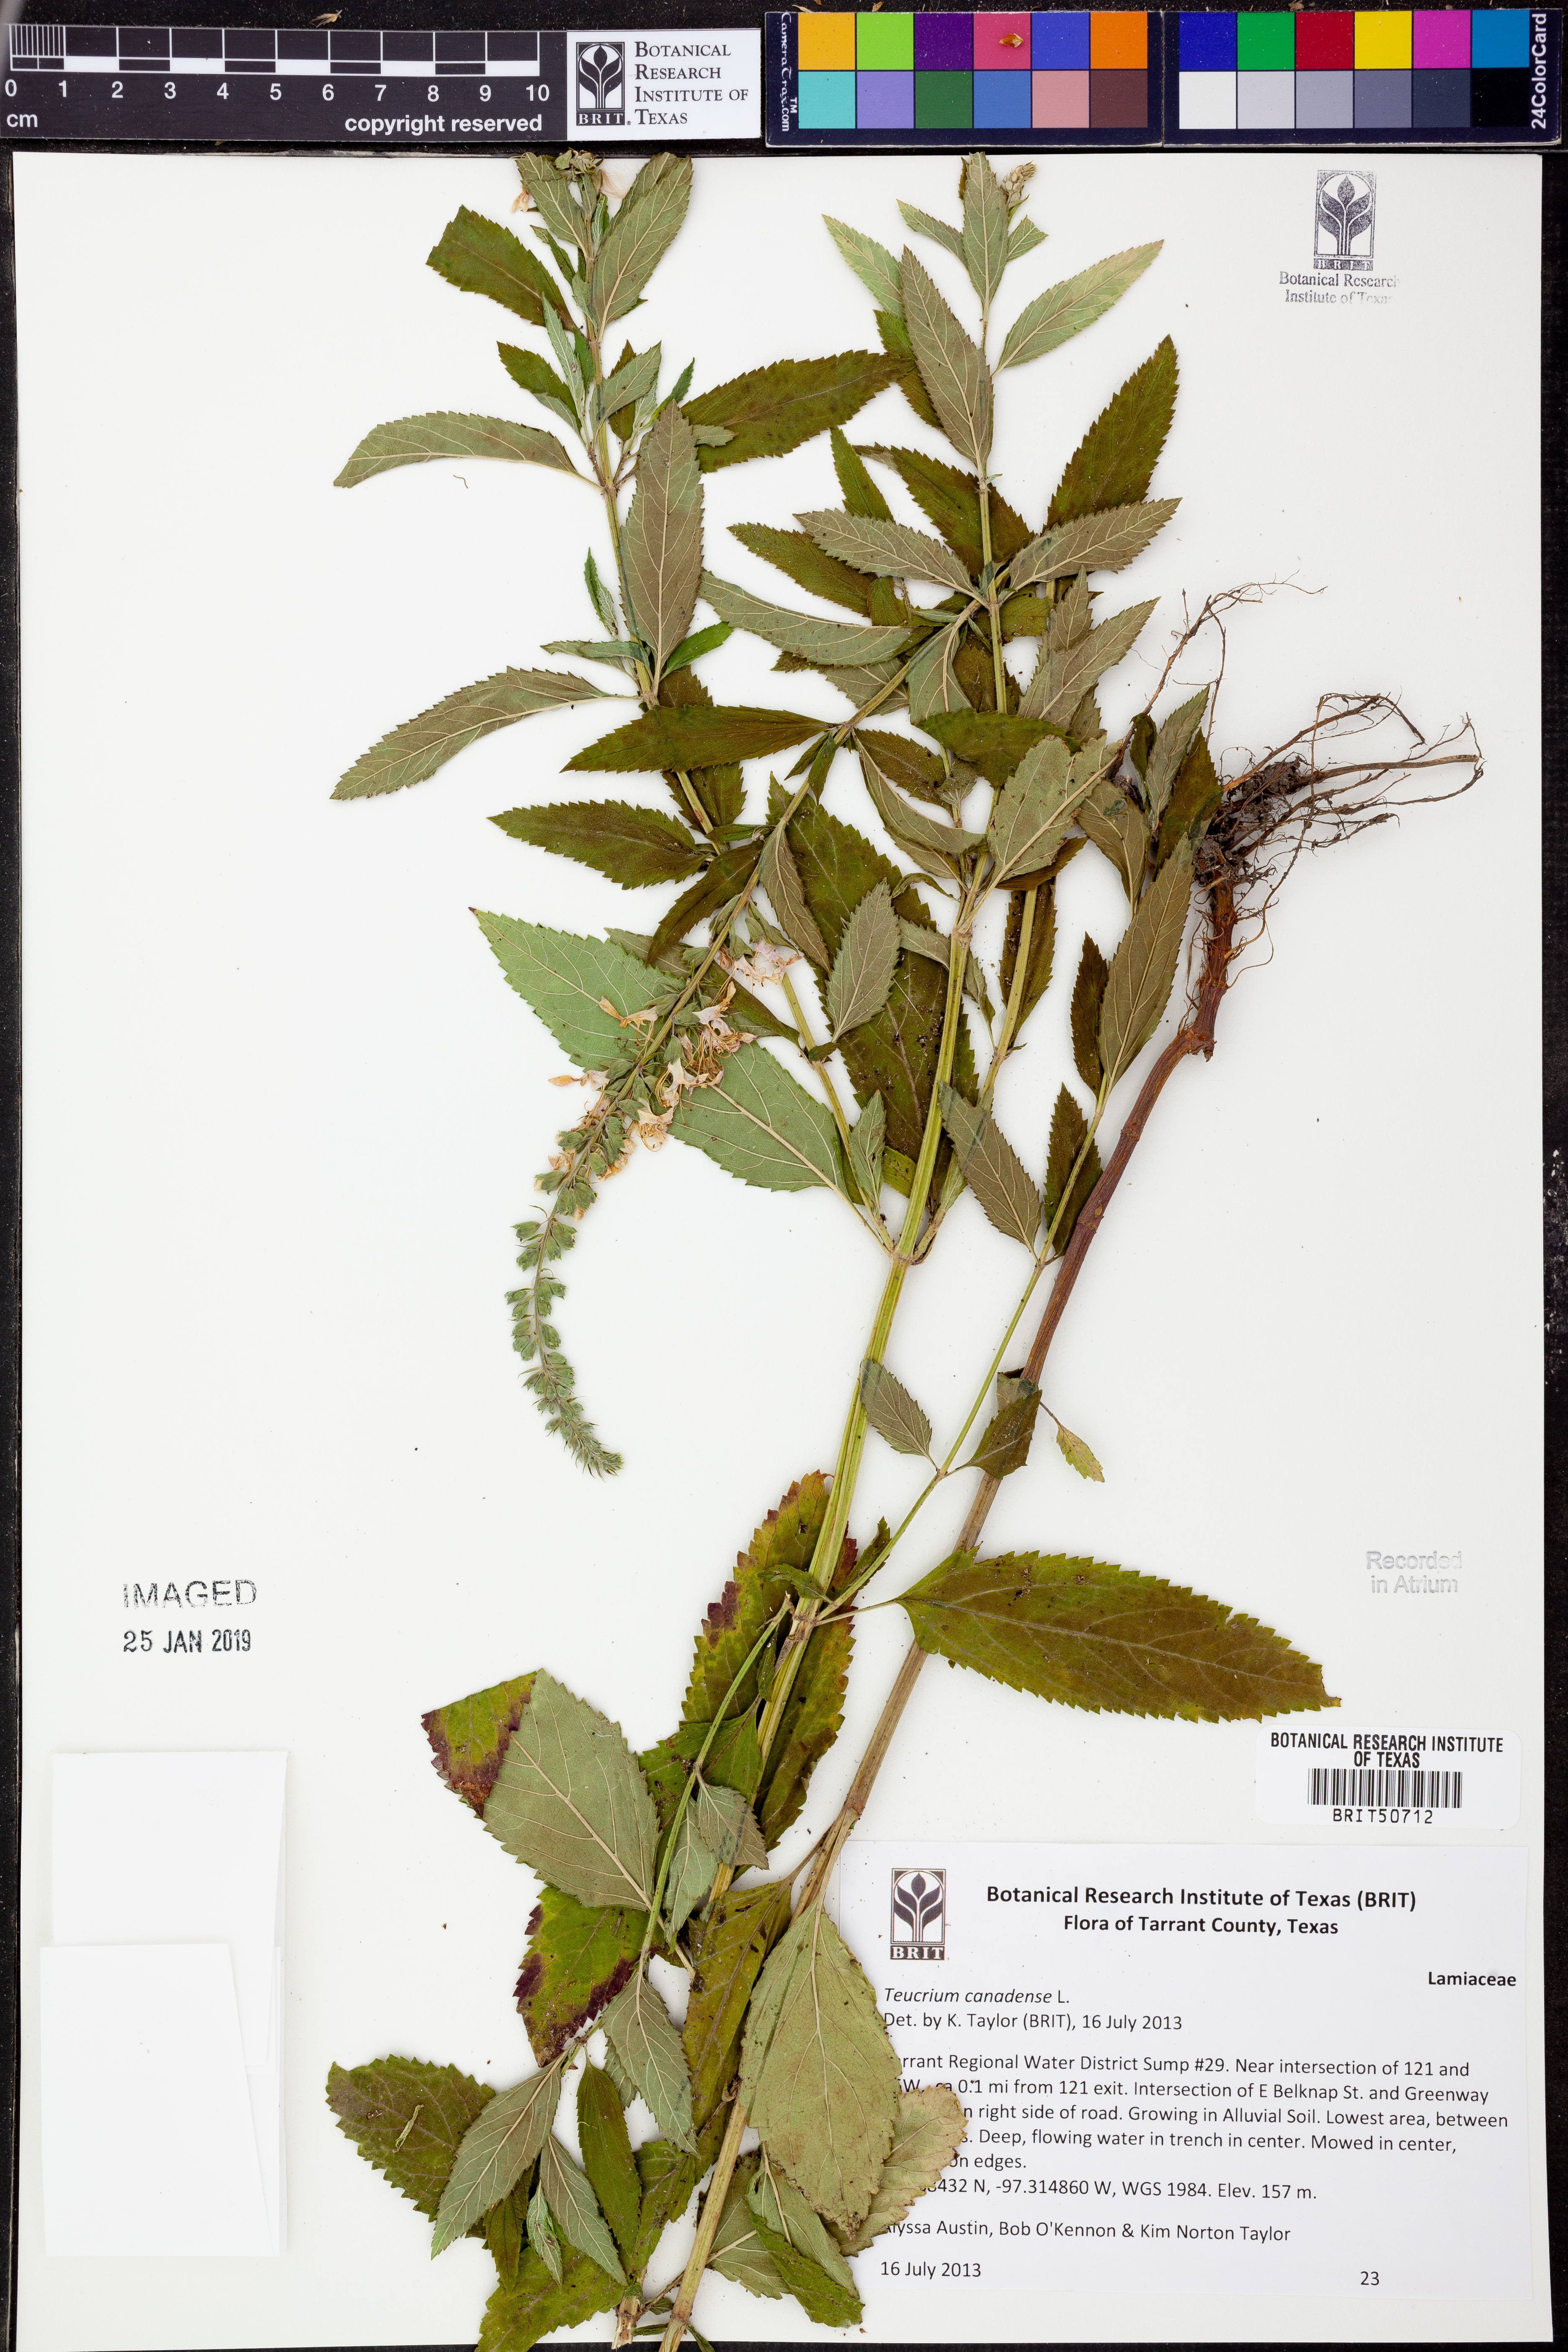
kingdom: Plantae
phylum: Tracheophyta
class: Magnoliopsida
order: Lamiales
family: Lamiaceae
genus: Teucrium
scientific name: Teucrium canadense
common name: American germander
